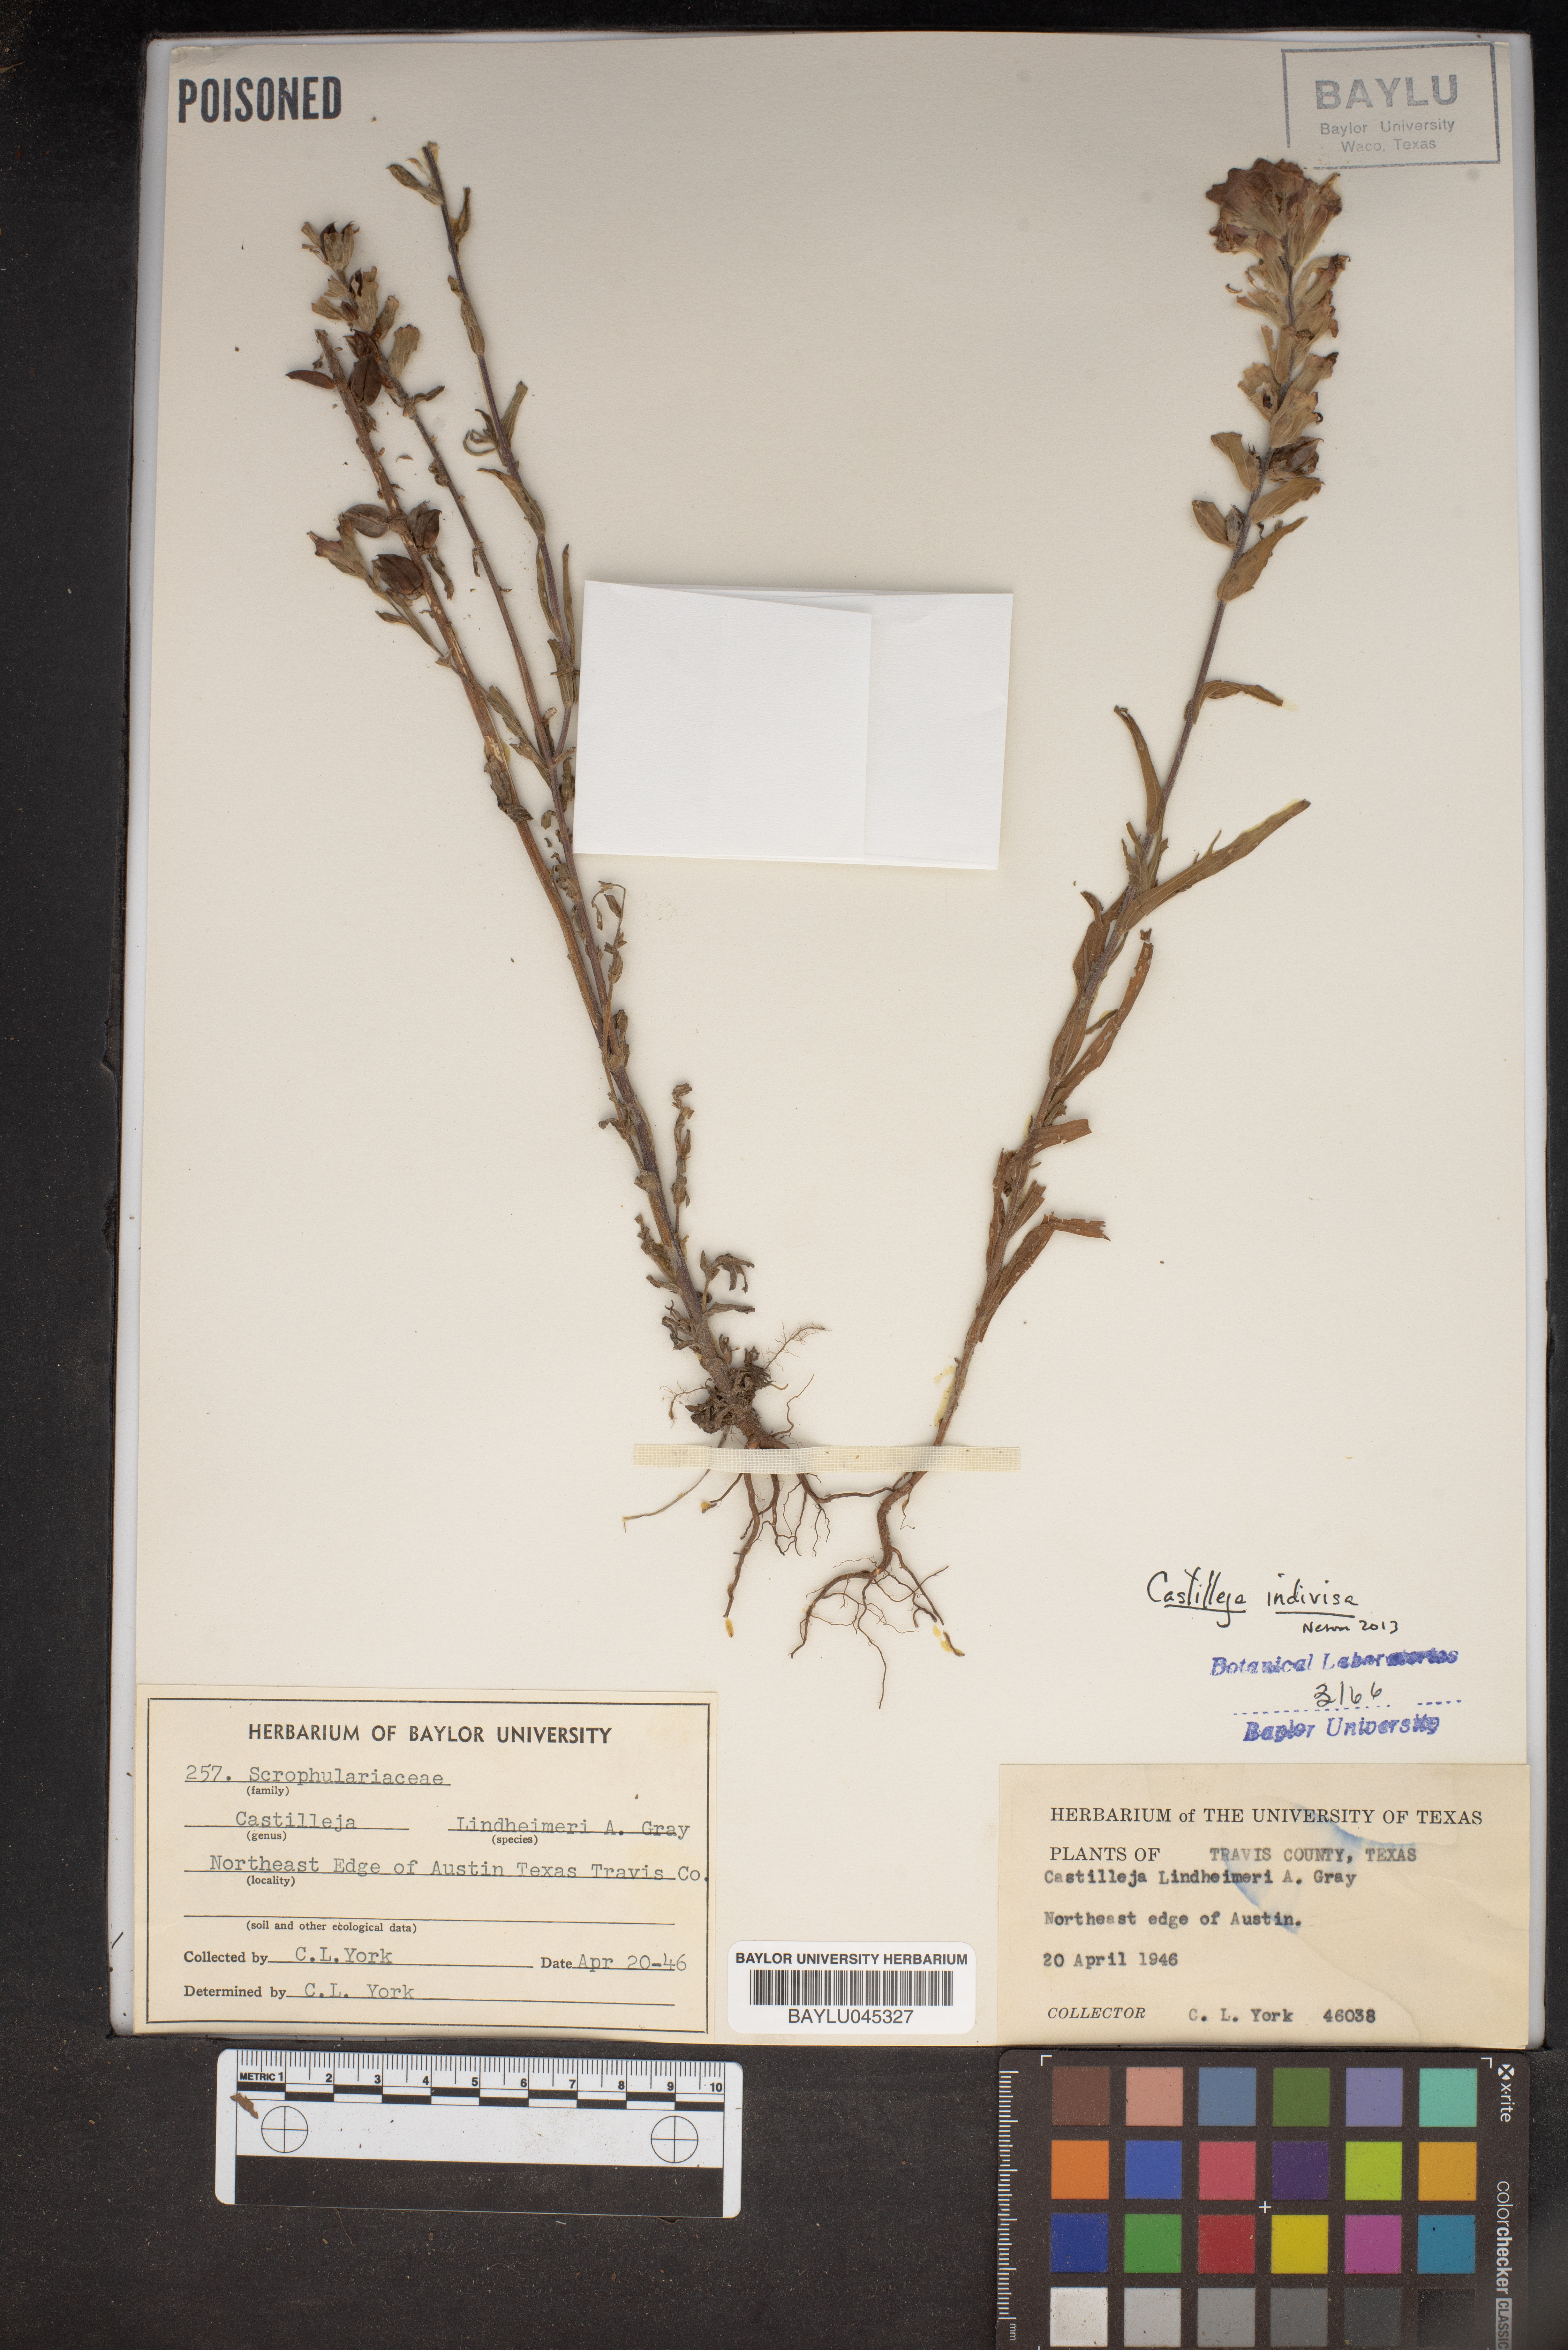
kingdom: Plantae
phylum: Tracheophyta
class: Magnoliopsida
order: Lamiales
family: Orobanchaceae
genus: Castilleja
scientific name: Castilleja indivisa
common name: Texas paintbrush
